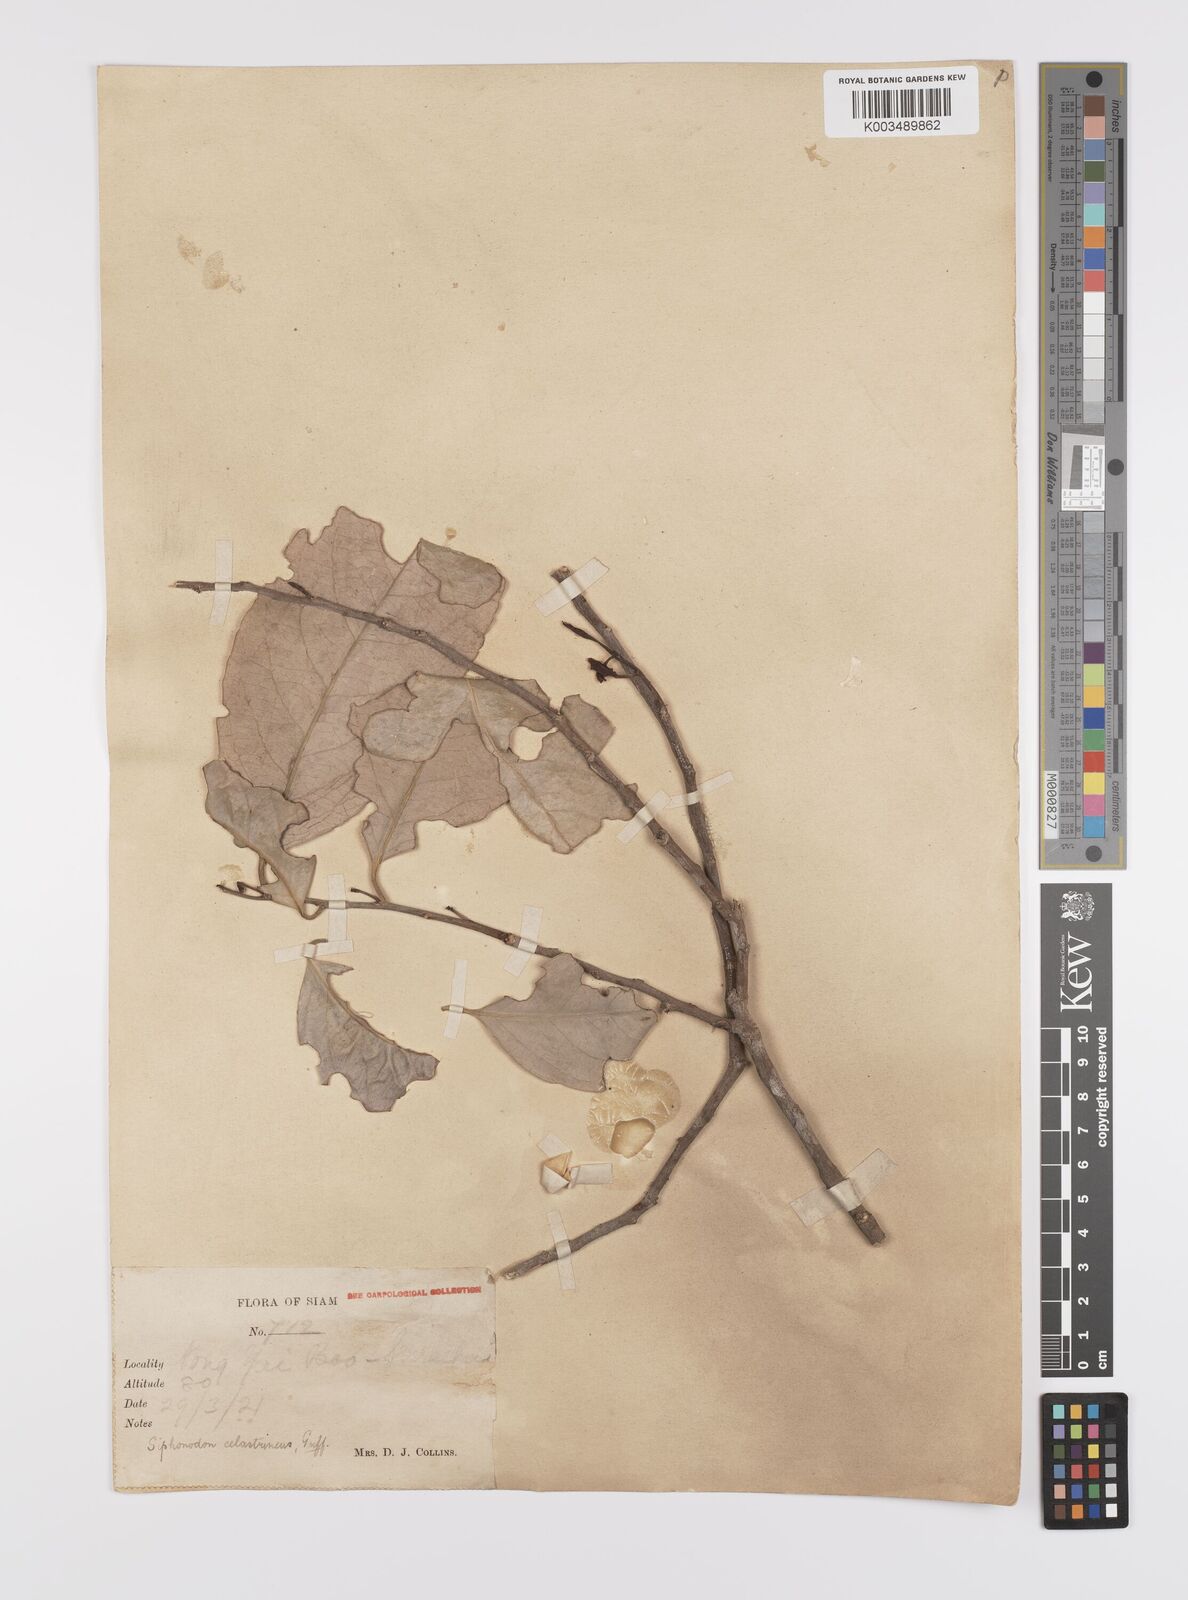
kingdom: Plantae
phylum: Tracheophyta
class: Magnoliopsida
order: Celastrales
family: Celastraceae
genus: Siphonodon
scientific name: Siphonodon celastrineus
